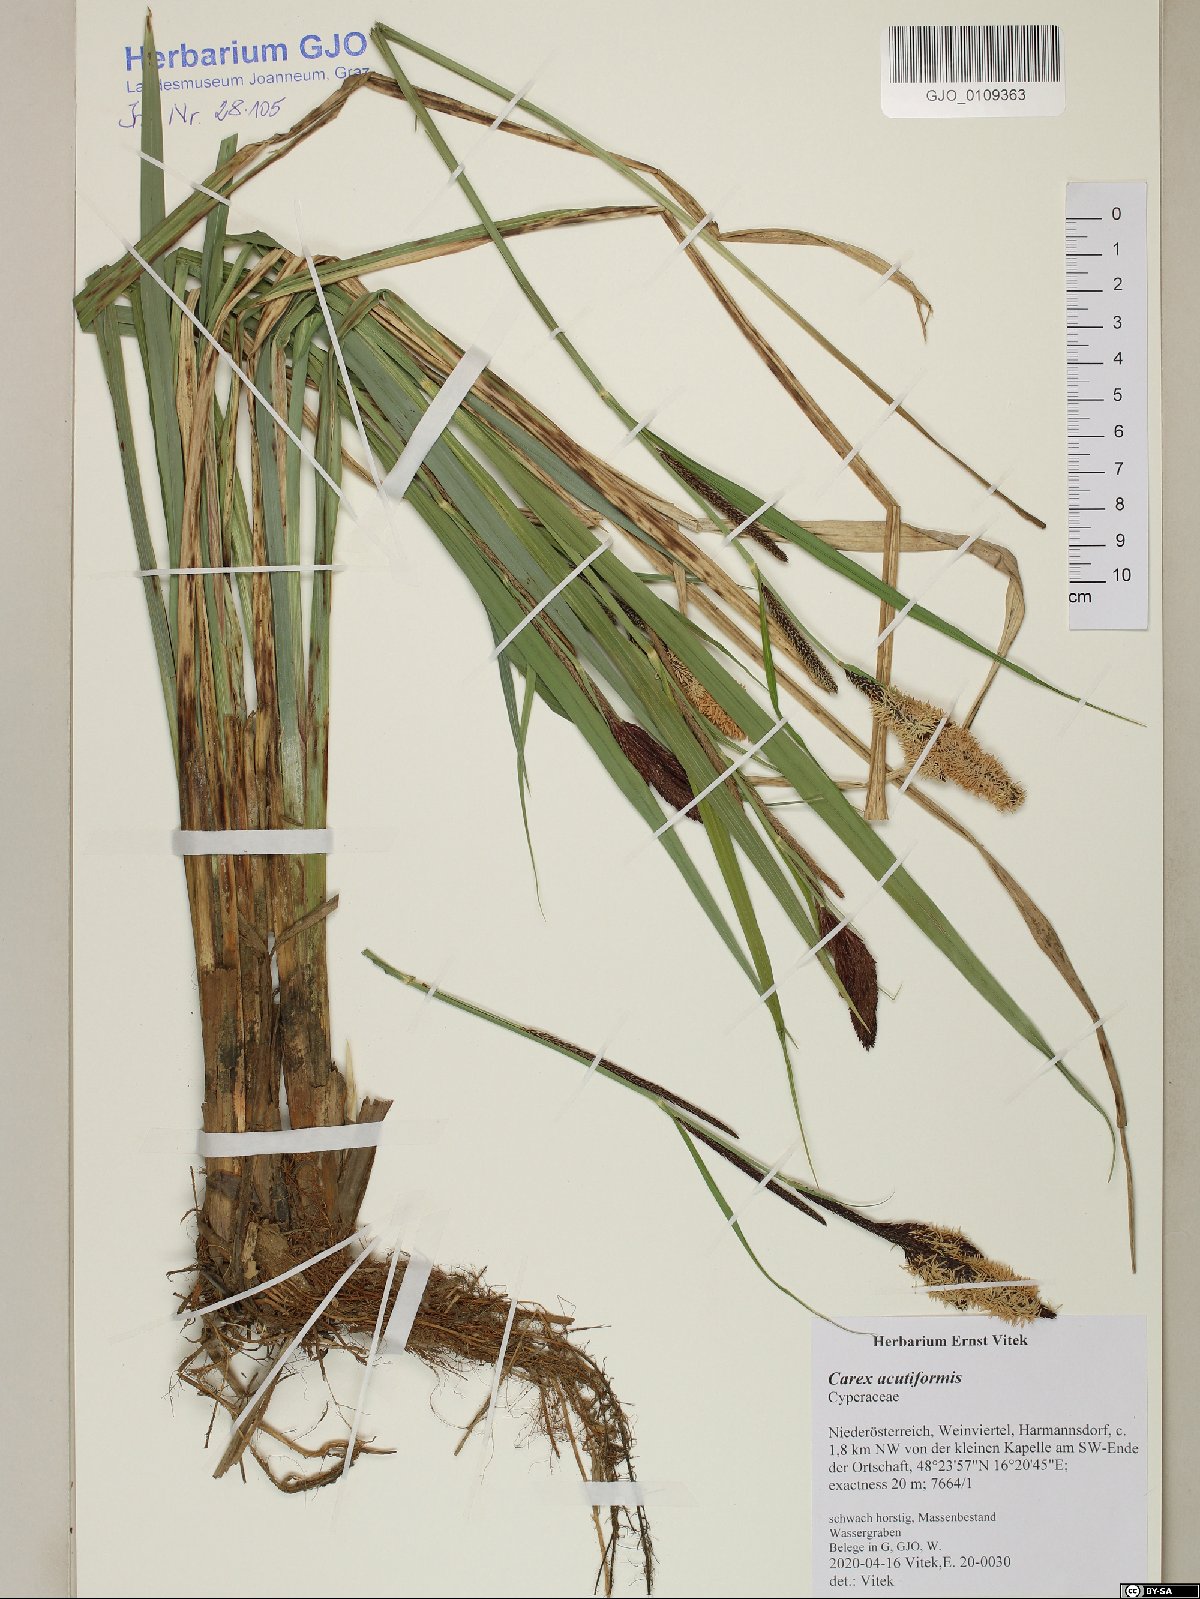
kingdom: Plantae
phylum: Tracheophyta
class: Liliopsida
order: Poales
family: Cyperaceae
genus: Carex
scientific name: Carex acutiformis
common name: Lesser pond-sedge
